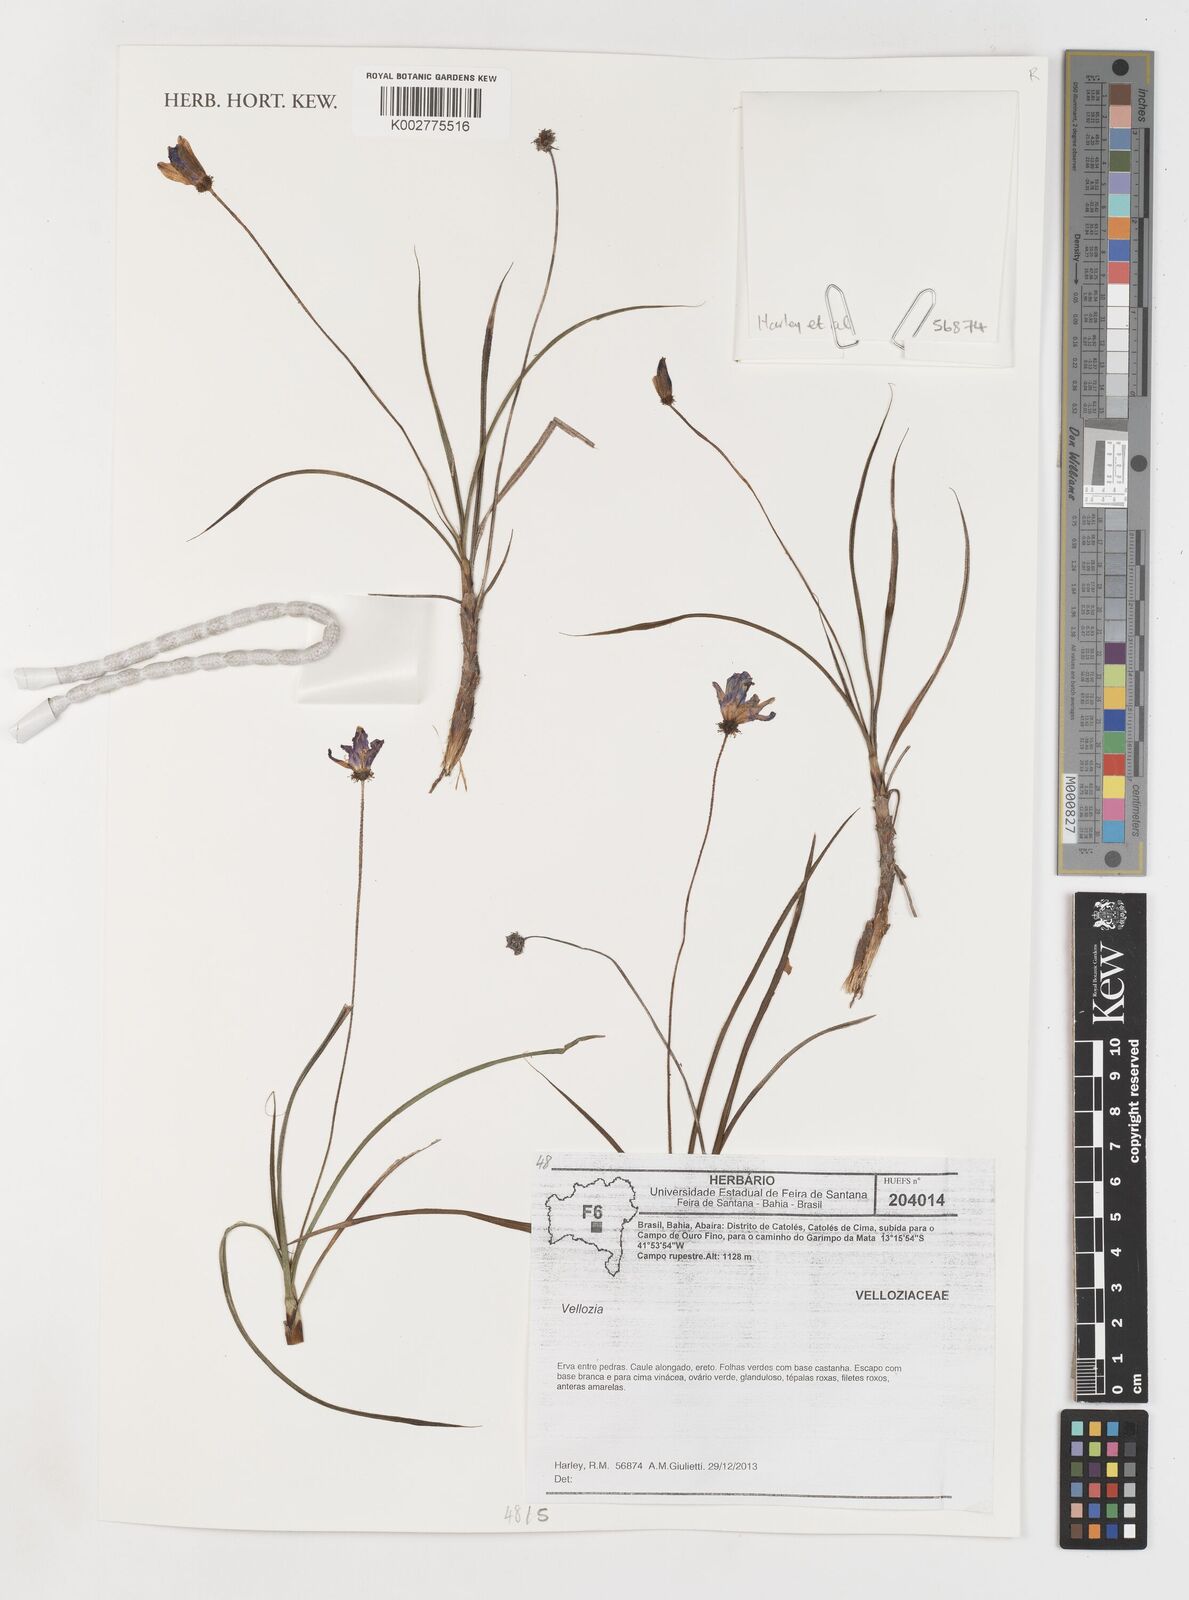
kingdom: Plantae
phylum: Tracheophyta
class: Liliopsida
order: Pandanales
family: Velloziaceae
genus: Vellozia
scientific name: Vellozia
